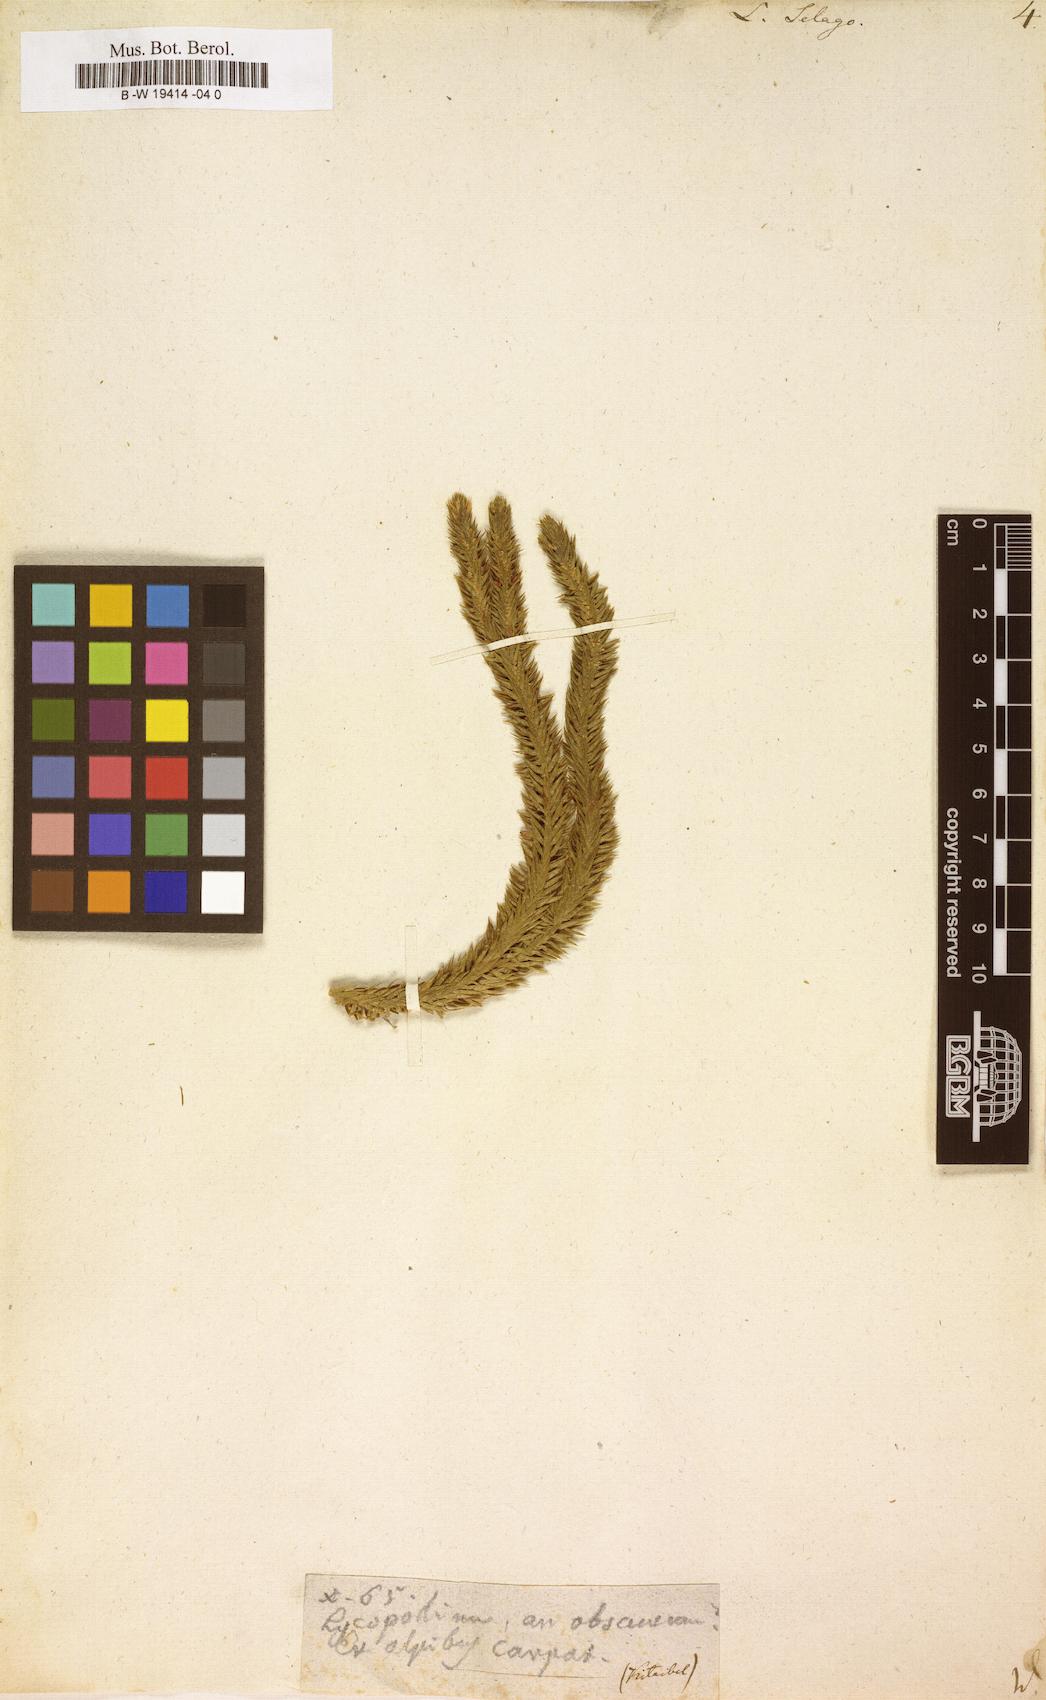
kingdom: Plantae
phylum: Tracheophyta
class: Lycopodiopsida
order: Lycopodiales
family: Lycopodiaceae
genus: Huperzia
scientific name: Huperzia selago
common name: Northern firmoss
